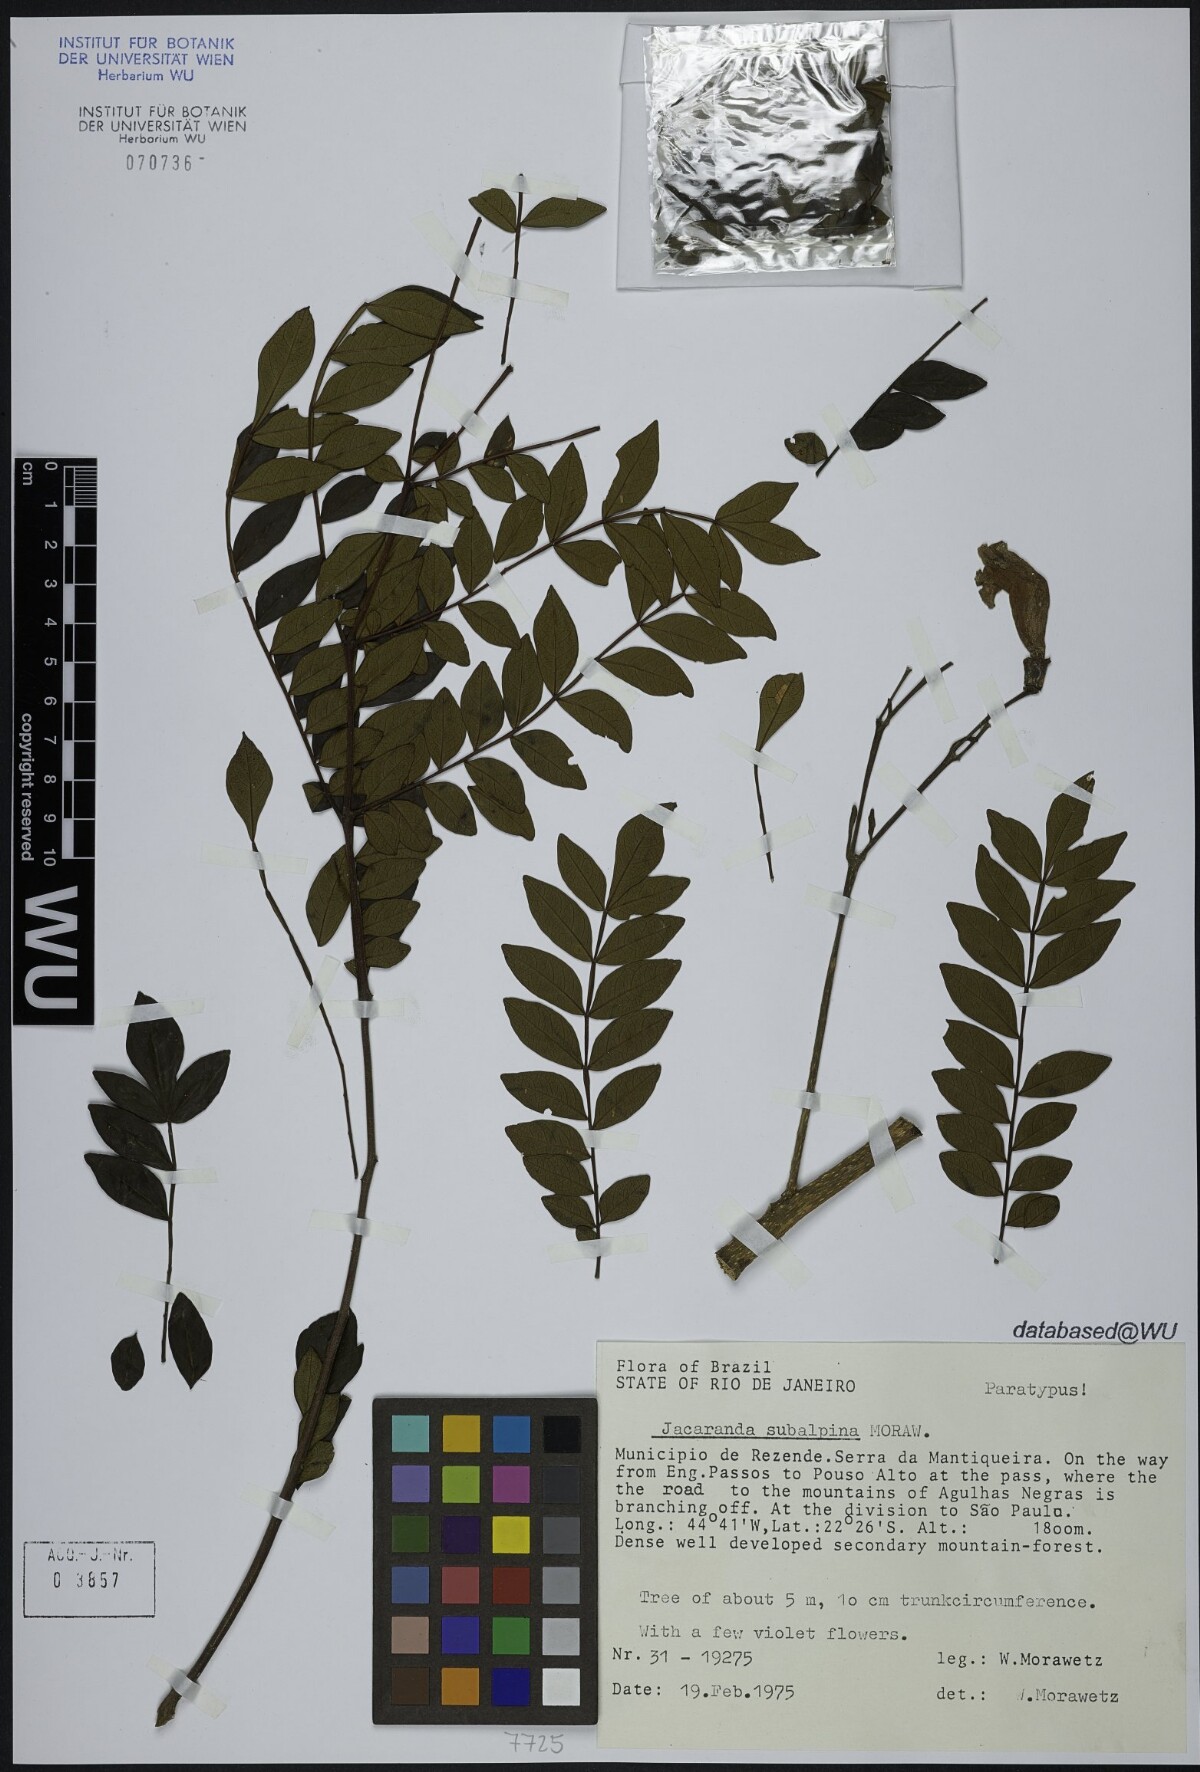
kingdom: Plantae
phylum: Tracheophyta
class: Magnoliopsida
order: Lamiales
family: Bignoniaceae
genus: Jacaranda
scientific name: Jacaranda subalpina
